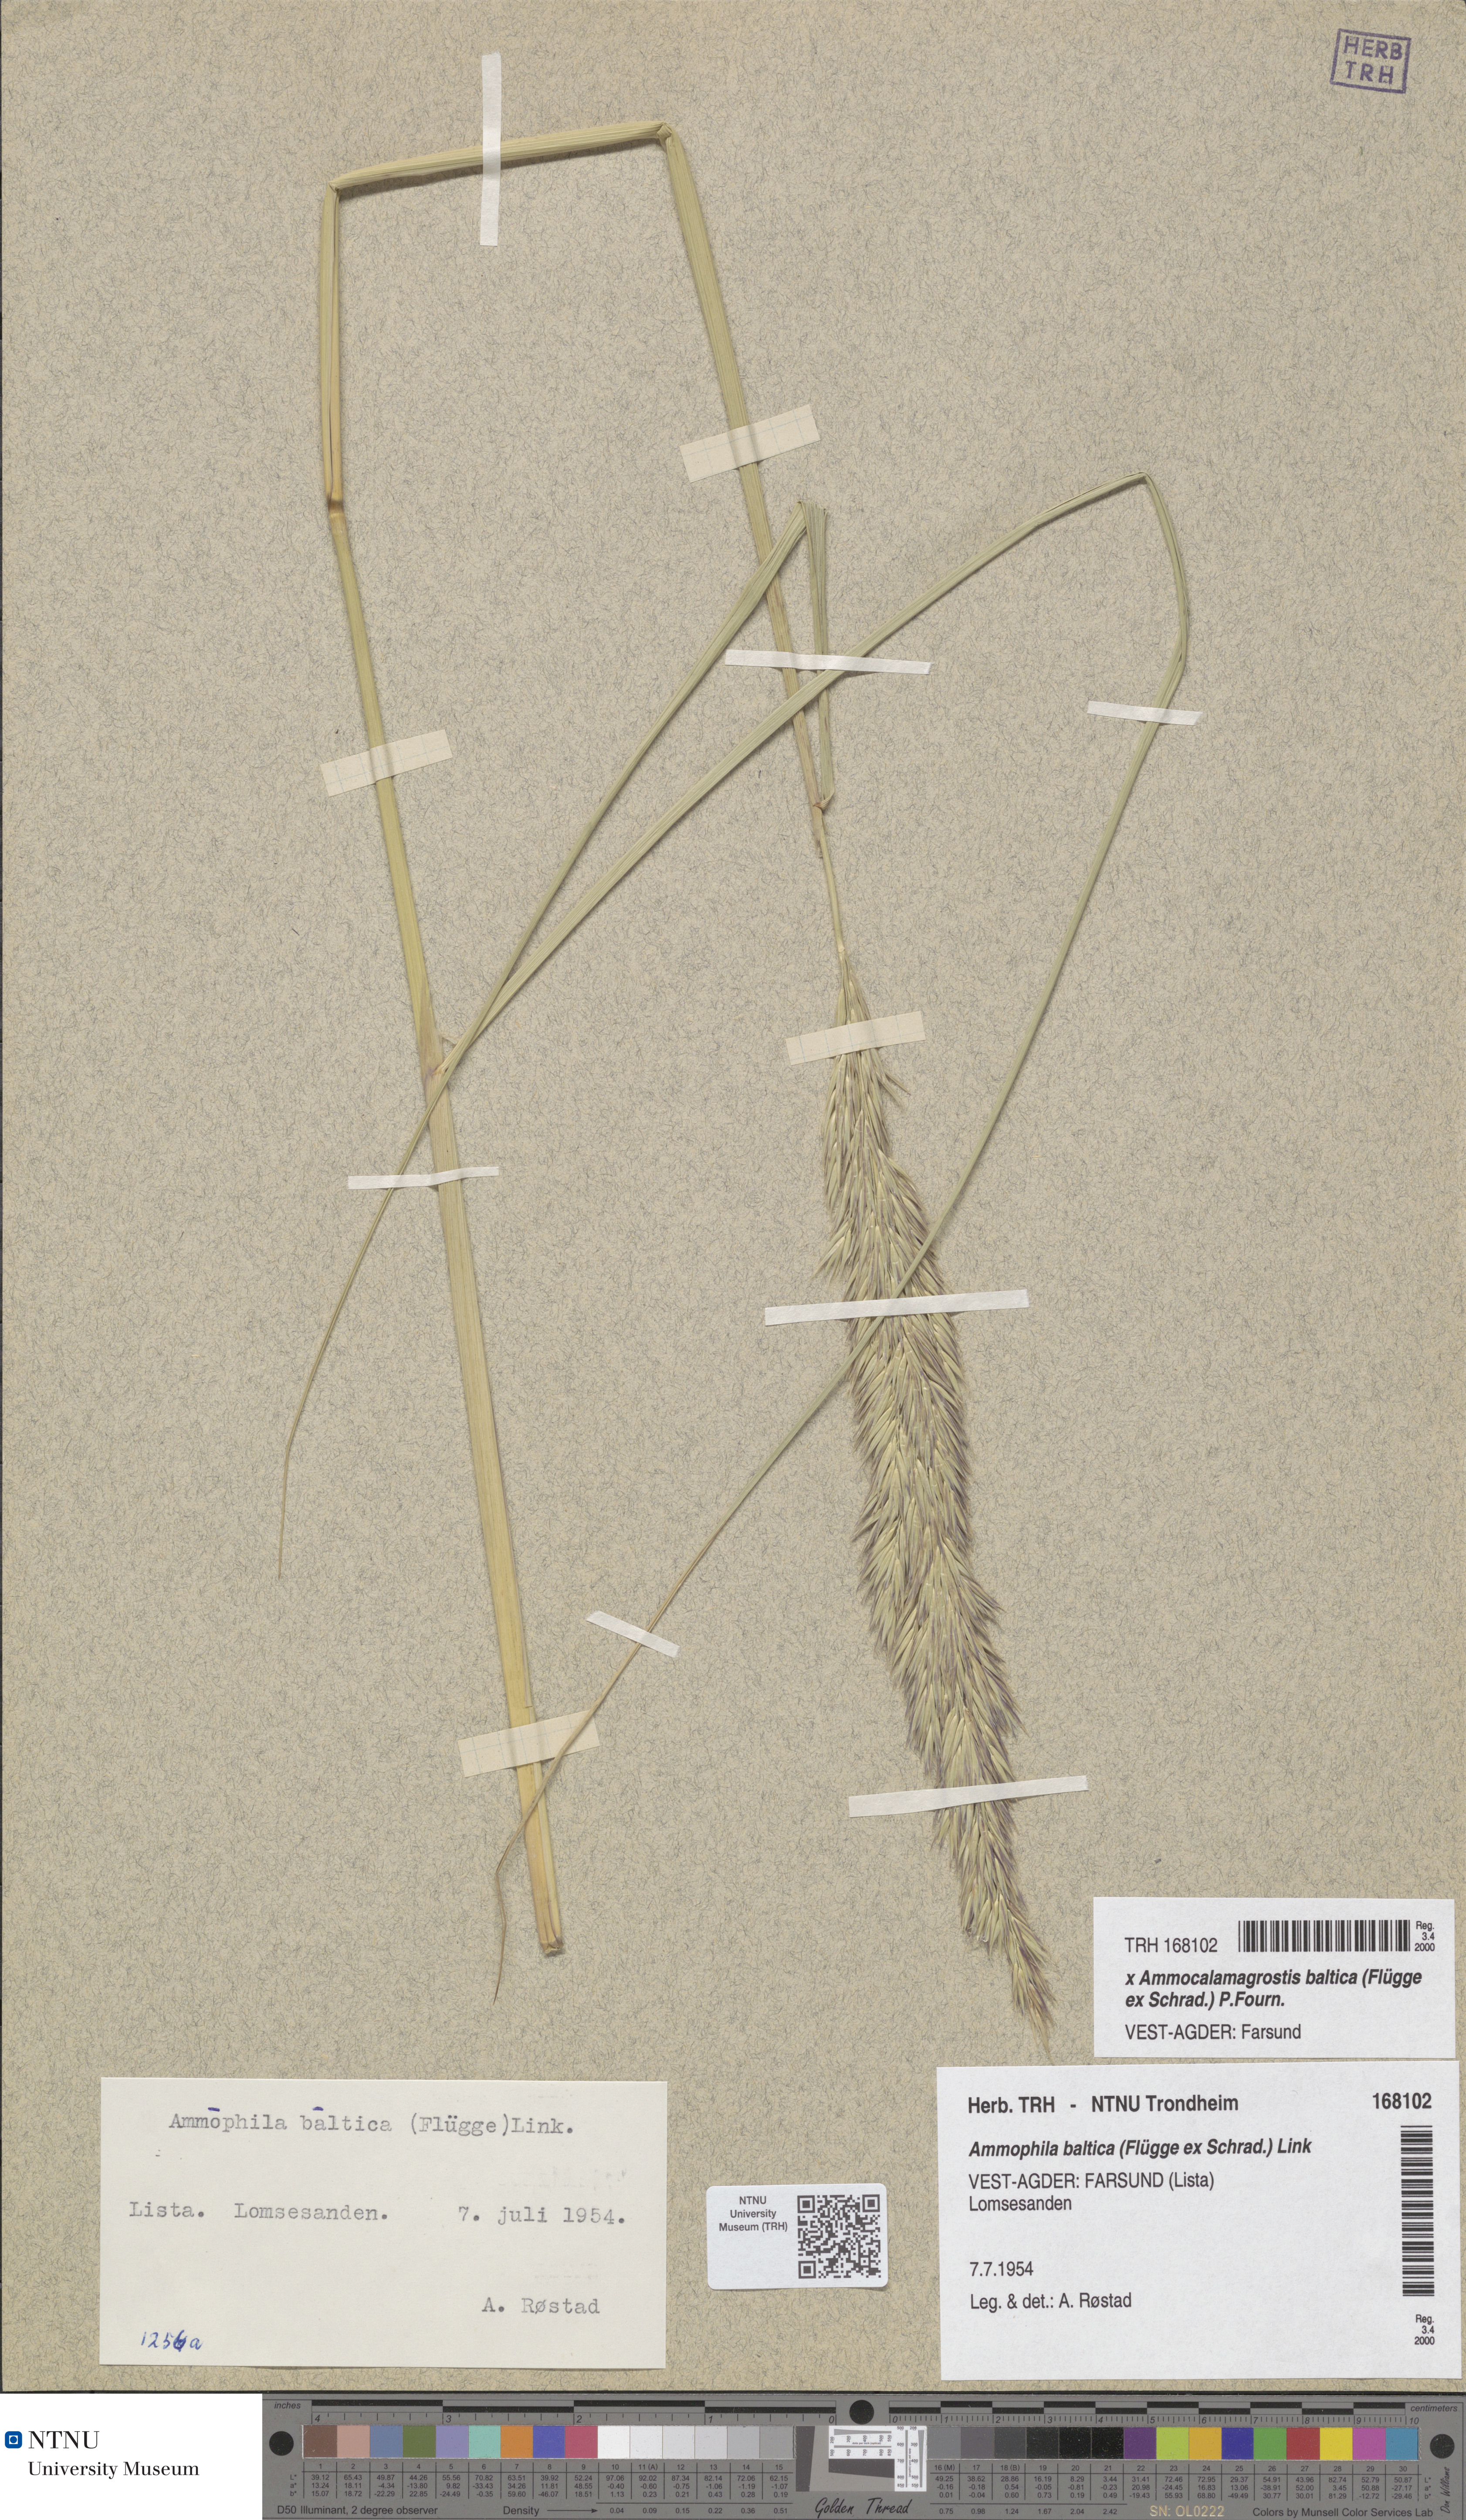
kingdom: Plantae
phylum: Tracheophyta
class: Liliopsida
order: Poales
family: Poaceae
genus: Calamagrostis
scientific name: Calamagrostis baltica
